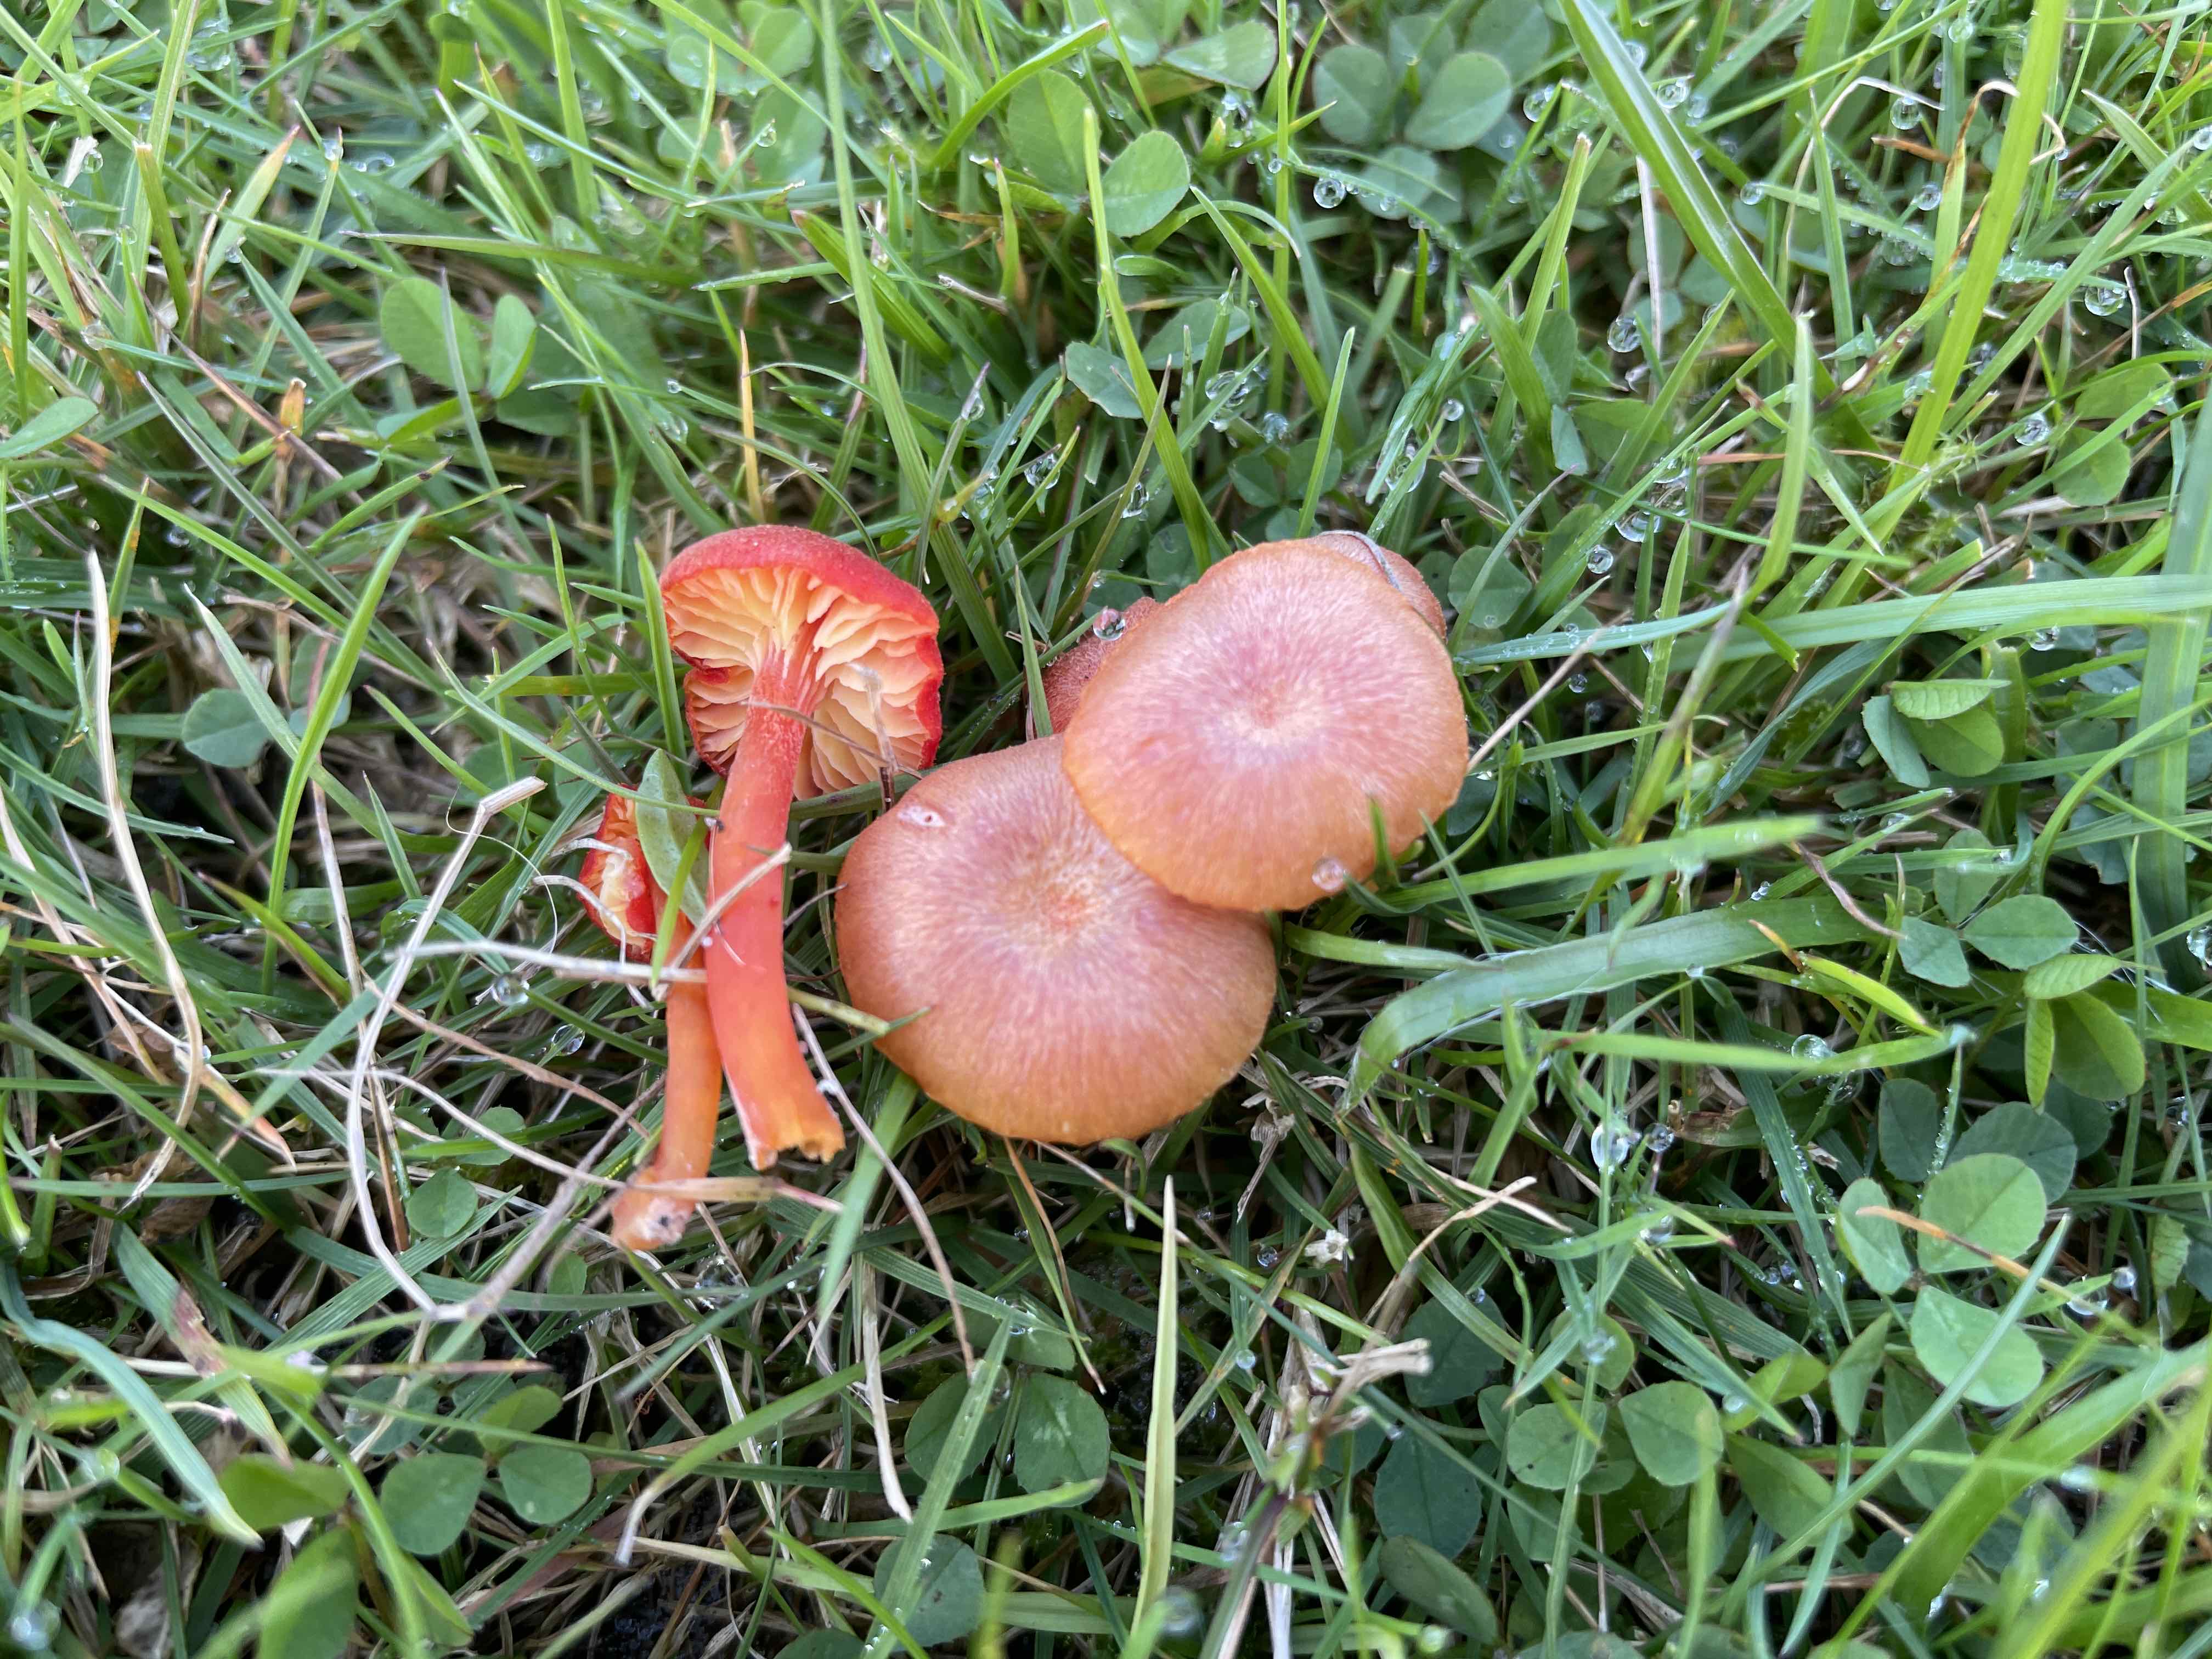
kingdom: Fungi
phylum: Basidiomycota
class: Agaricomycetes
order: Agaricales
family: Hygrophoraceae
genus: Hygrocybe
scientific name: Hygrocybe miniata
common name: mønje-vokshat
